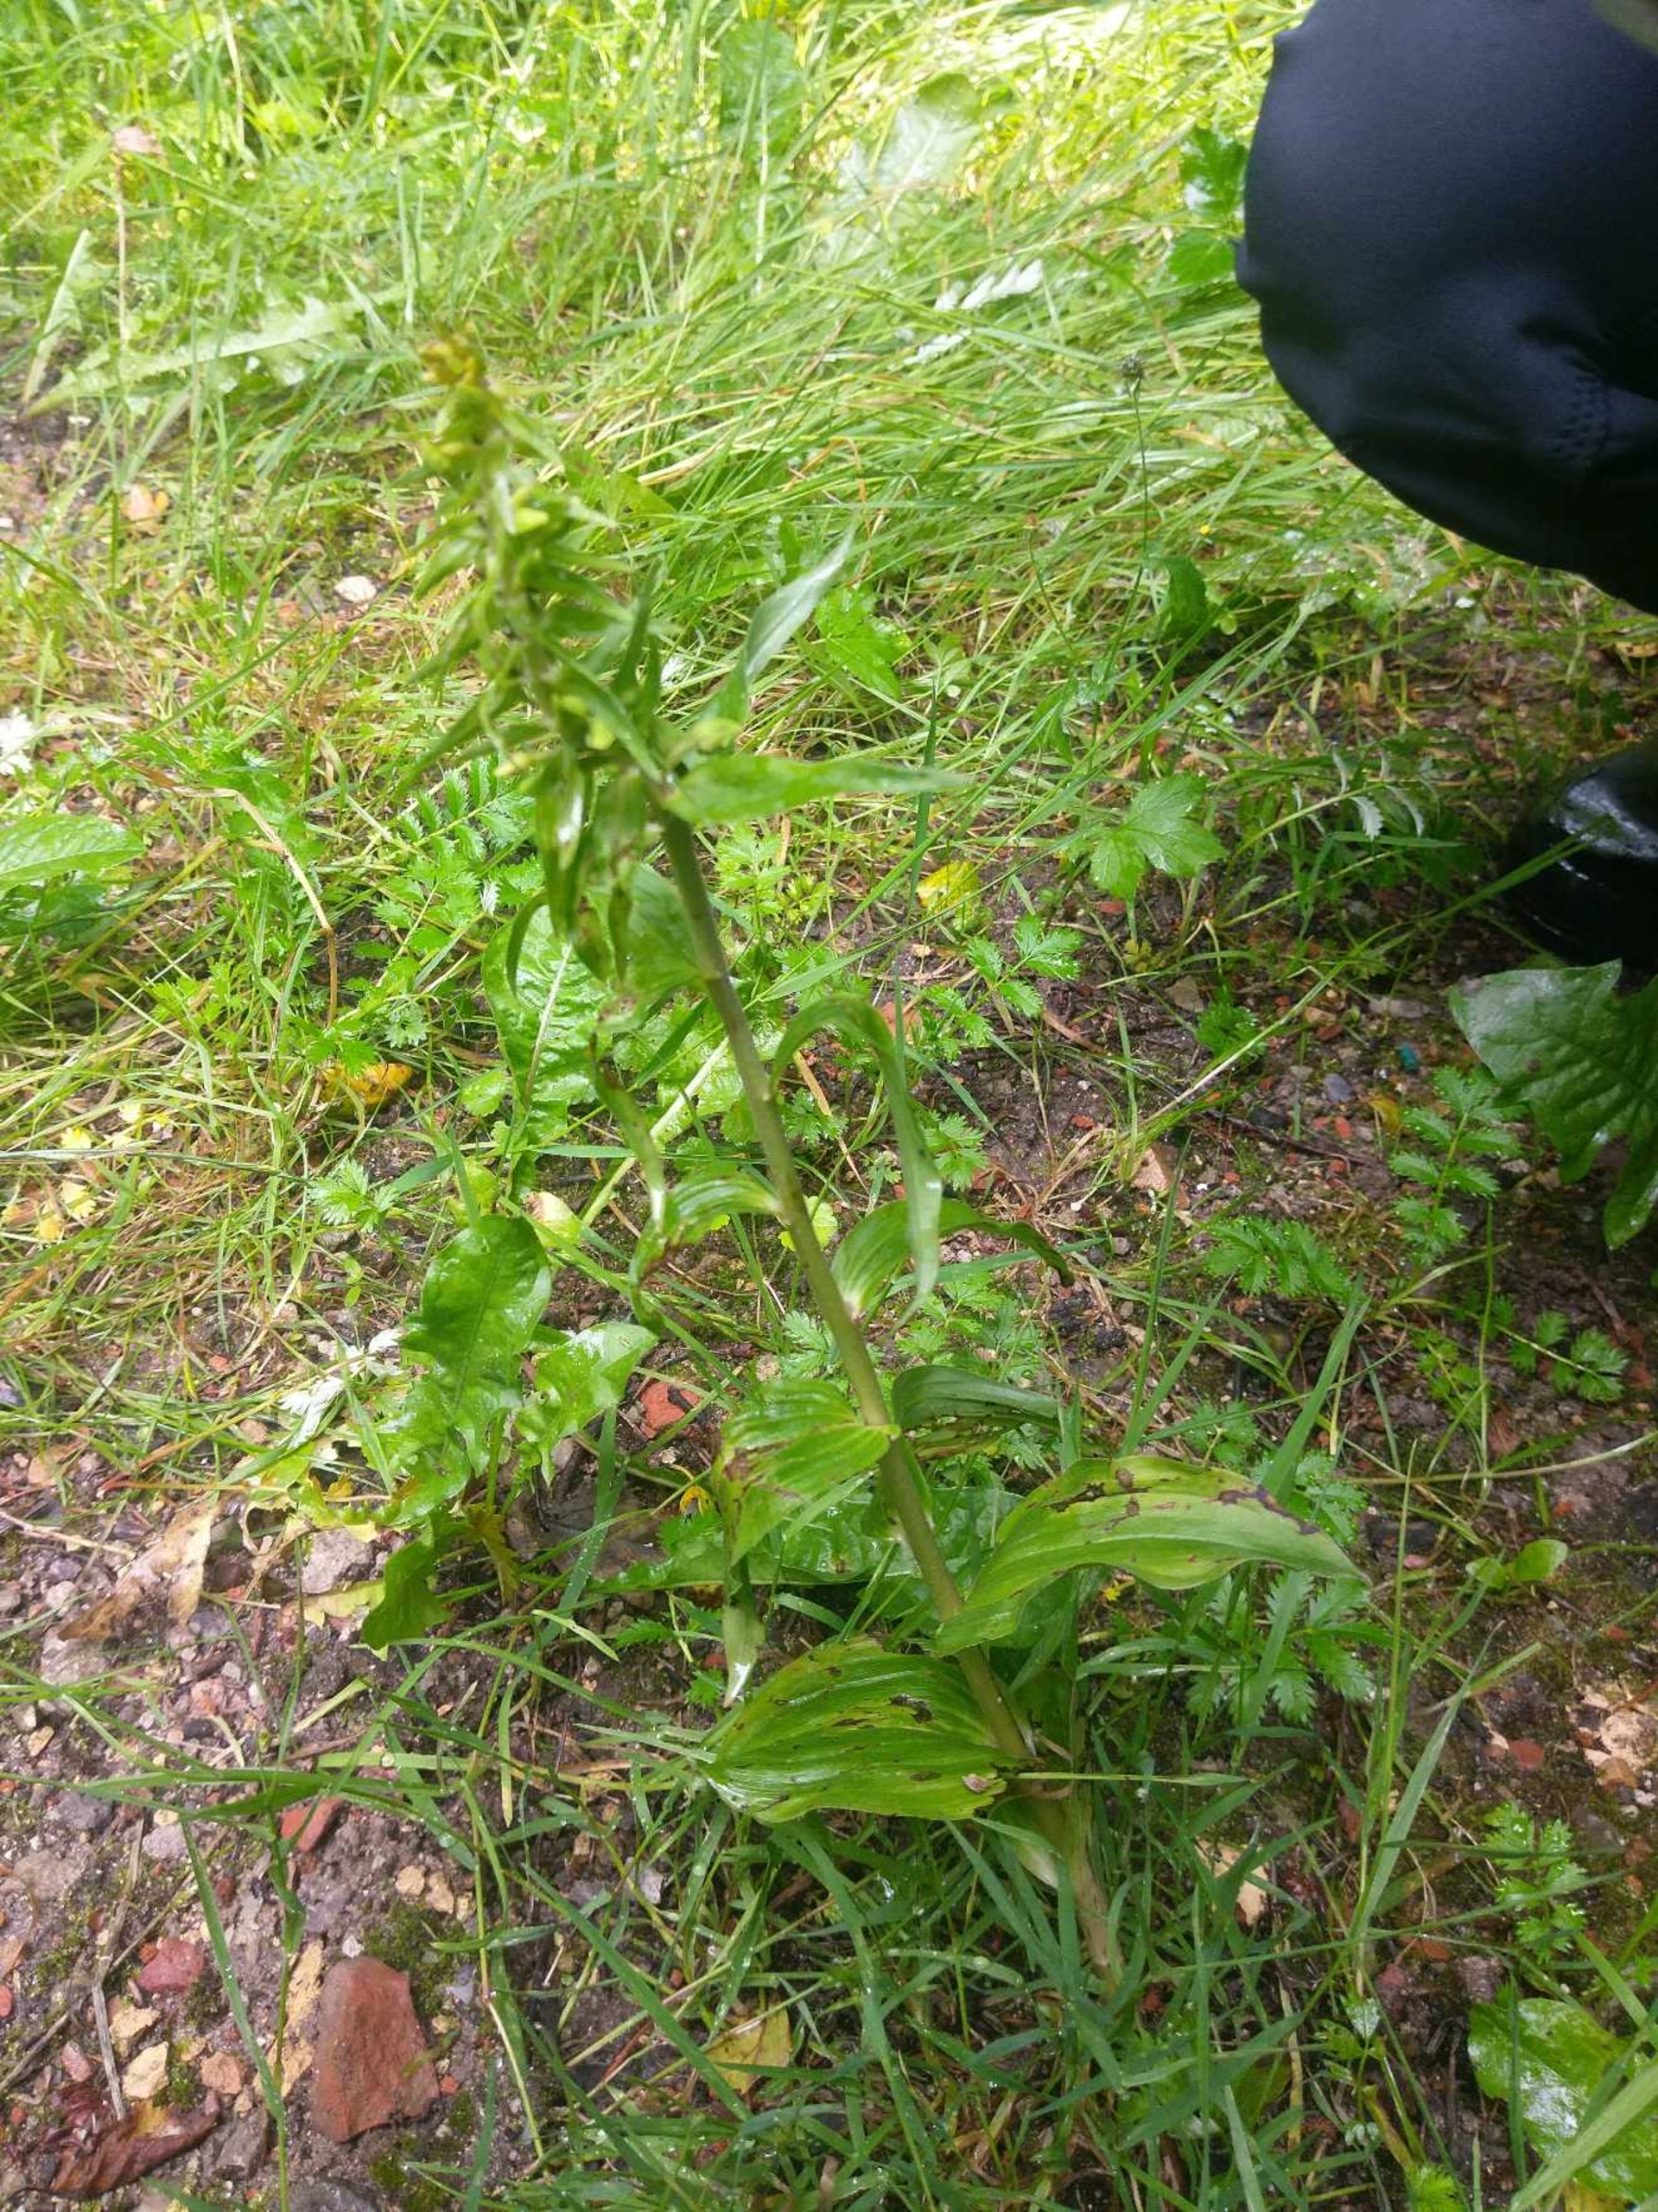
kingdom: Plantae
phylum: Tracheophyta
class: Liliopsida
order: Asparagales
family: Orchidaceae
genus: Epipactis
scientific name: Epipactis helleborine
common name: Skov-hullæbe
